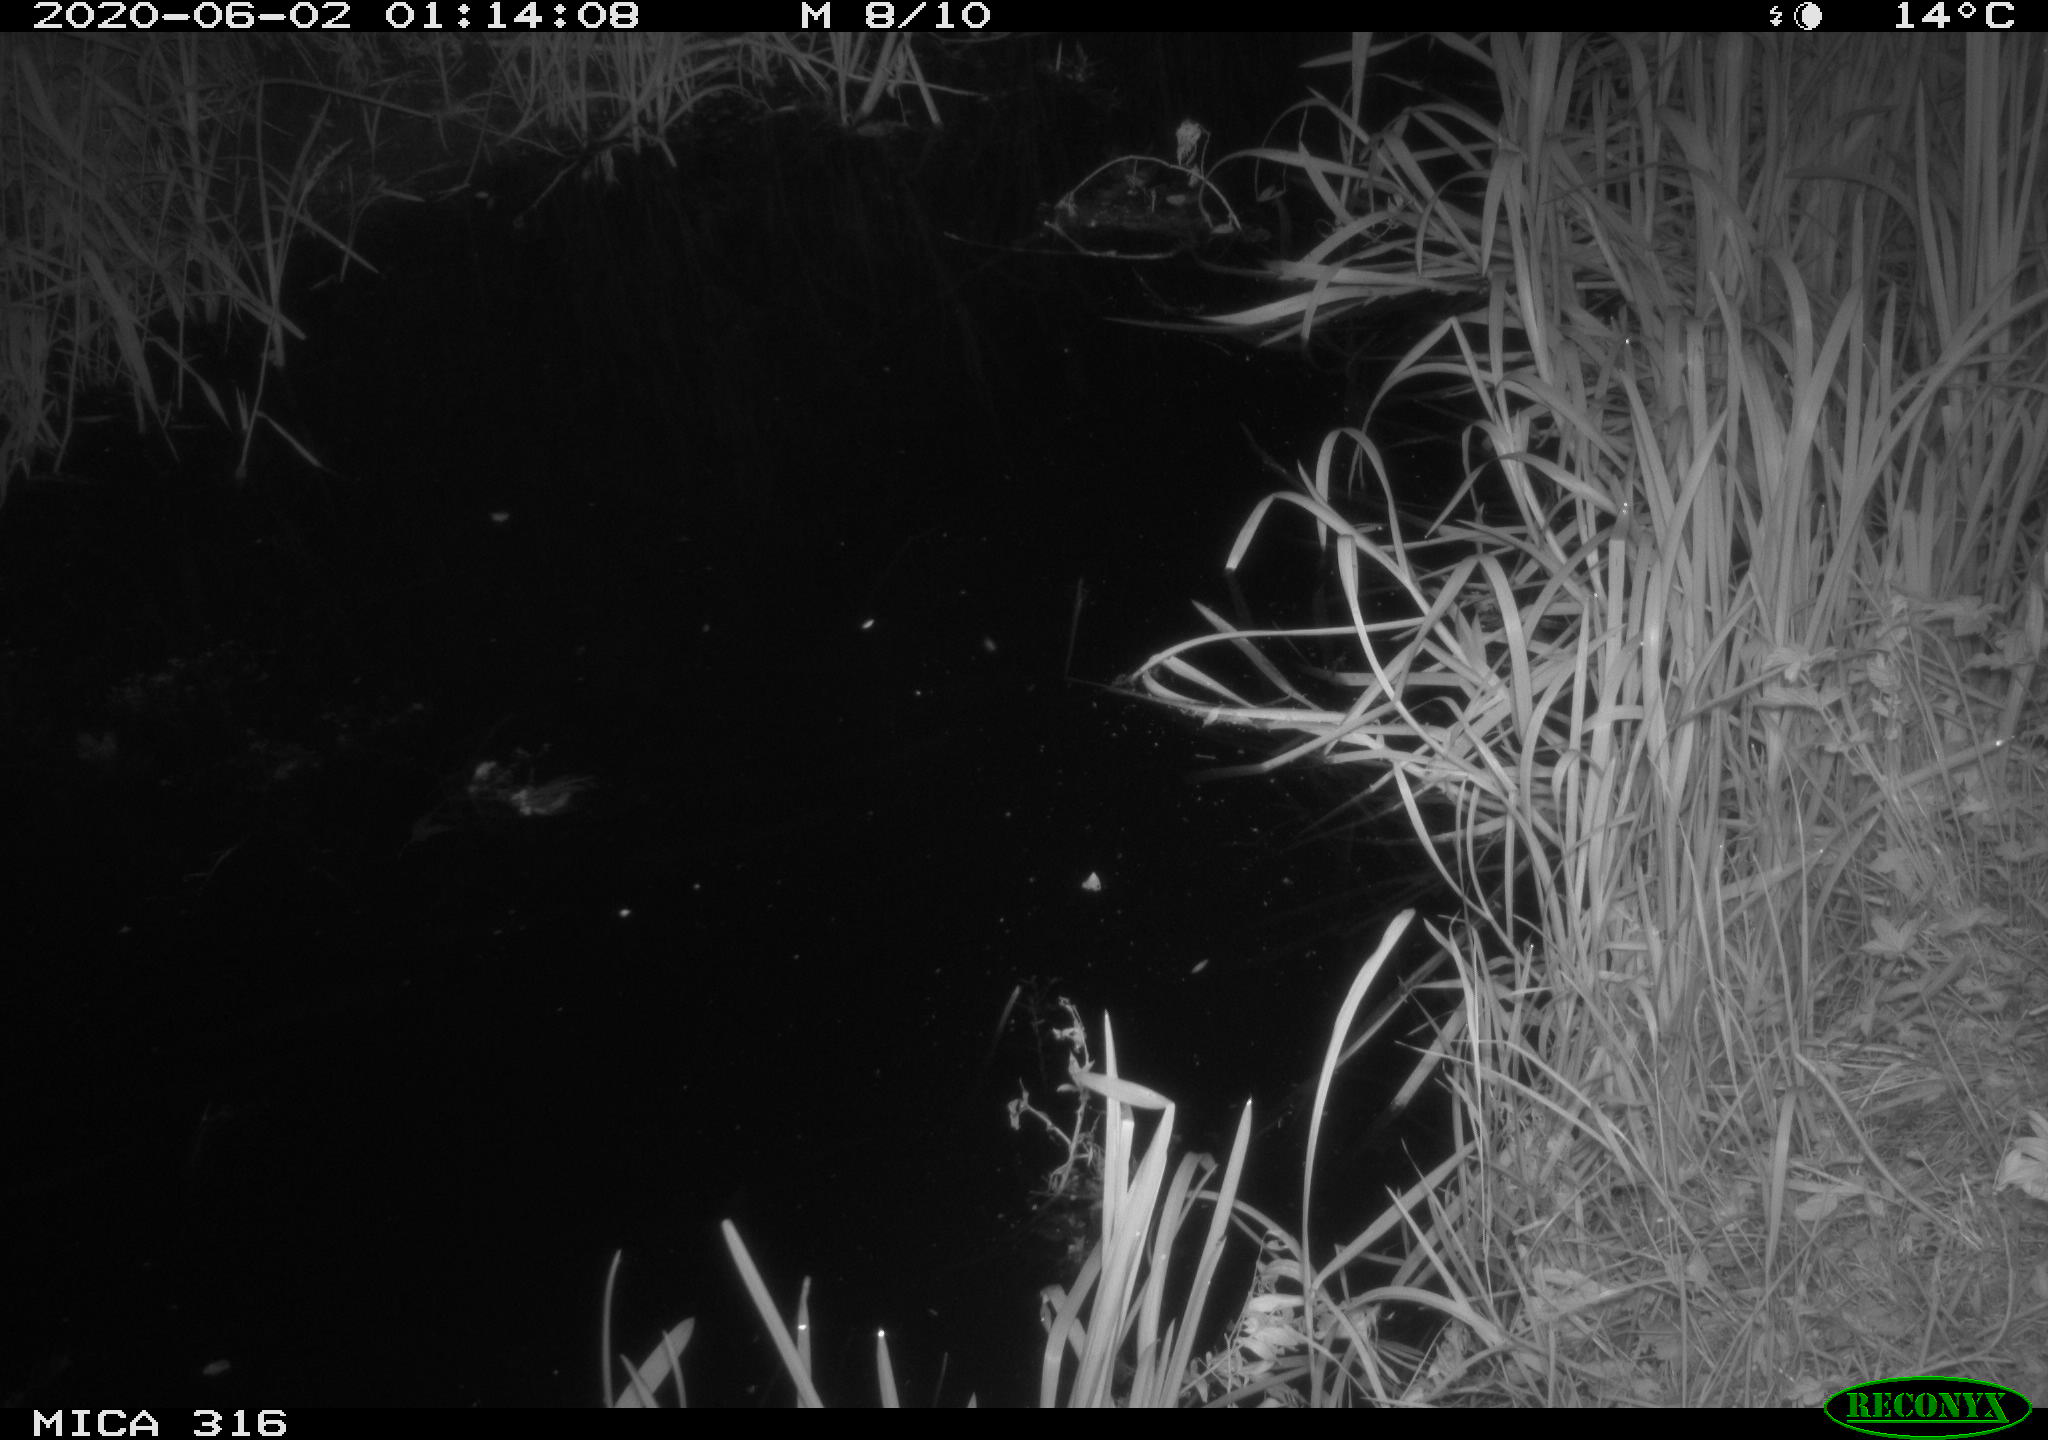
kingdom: Animalia
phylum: Chordata
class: Aves
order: Anseriformes
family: Anatidae
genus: Anas
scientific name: Anas platyrhynchos
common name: Mallard
